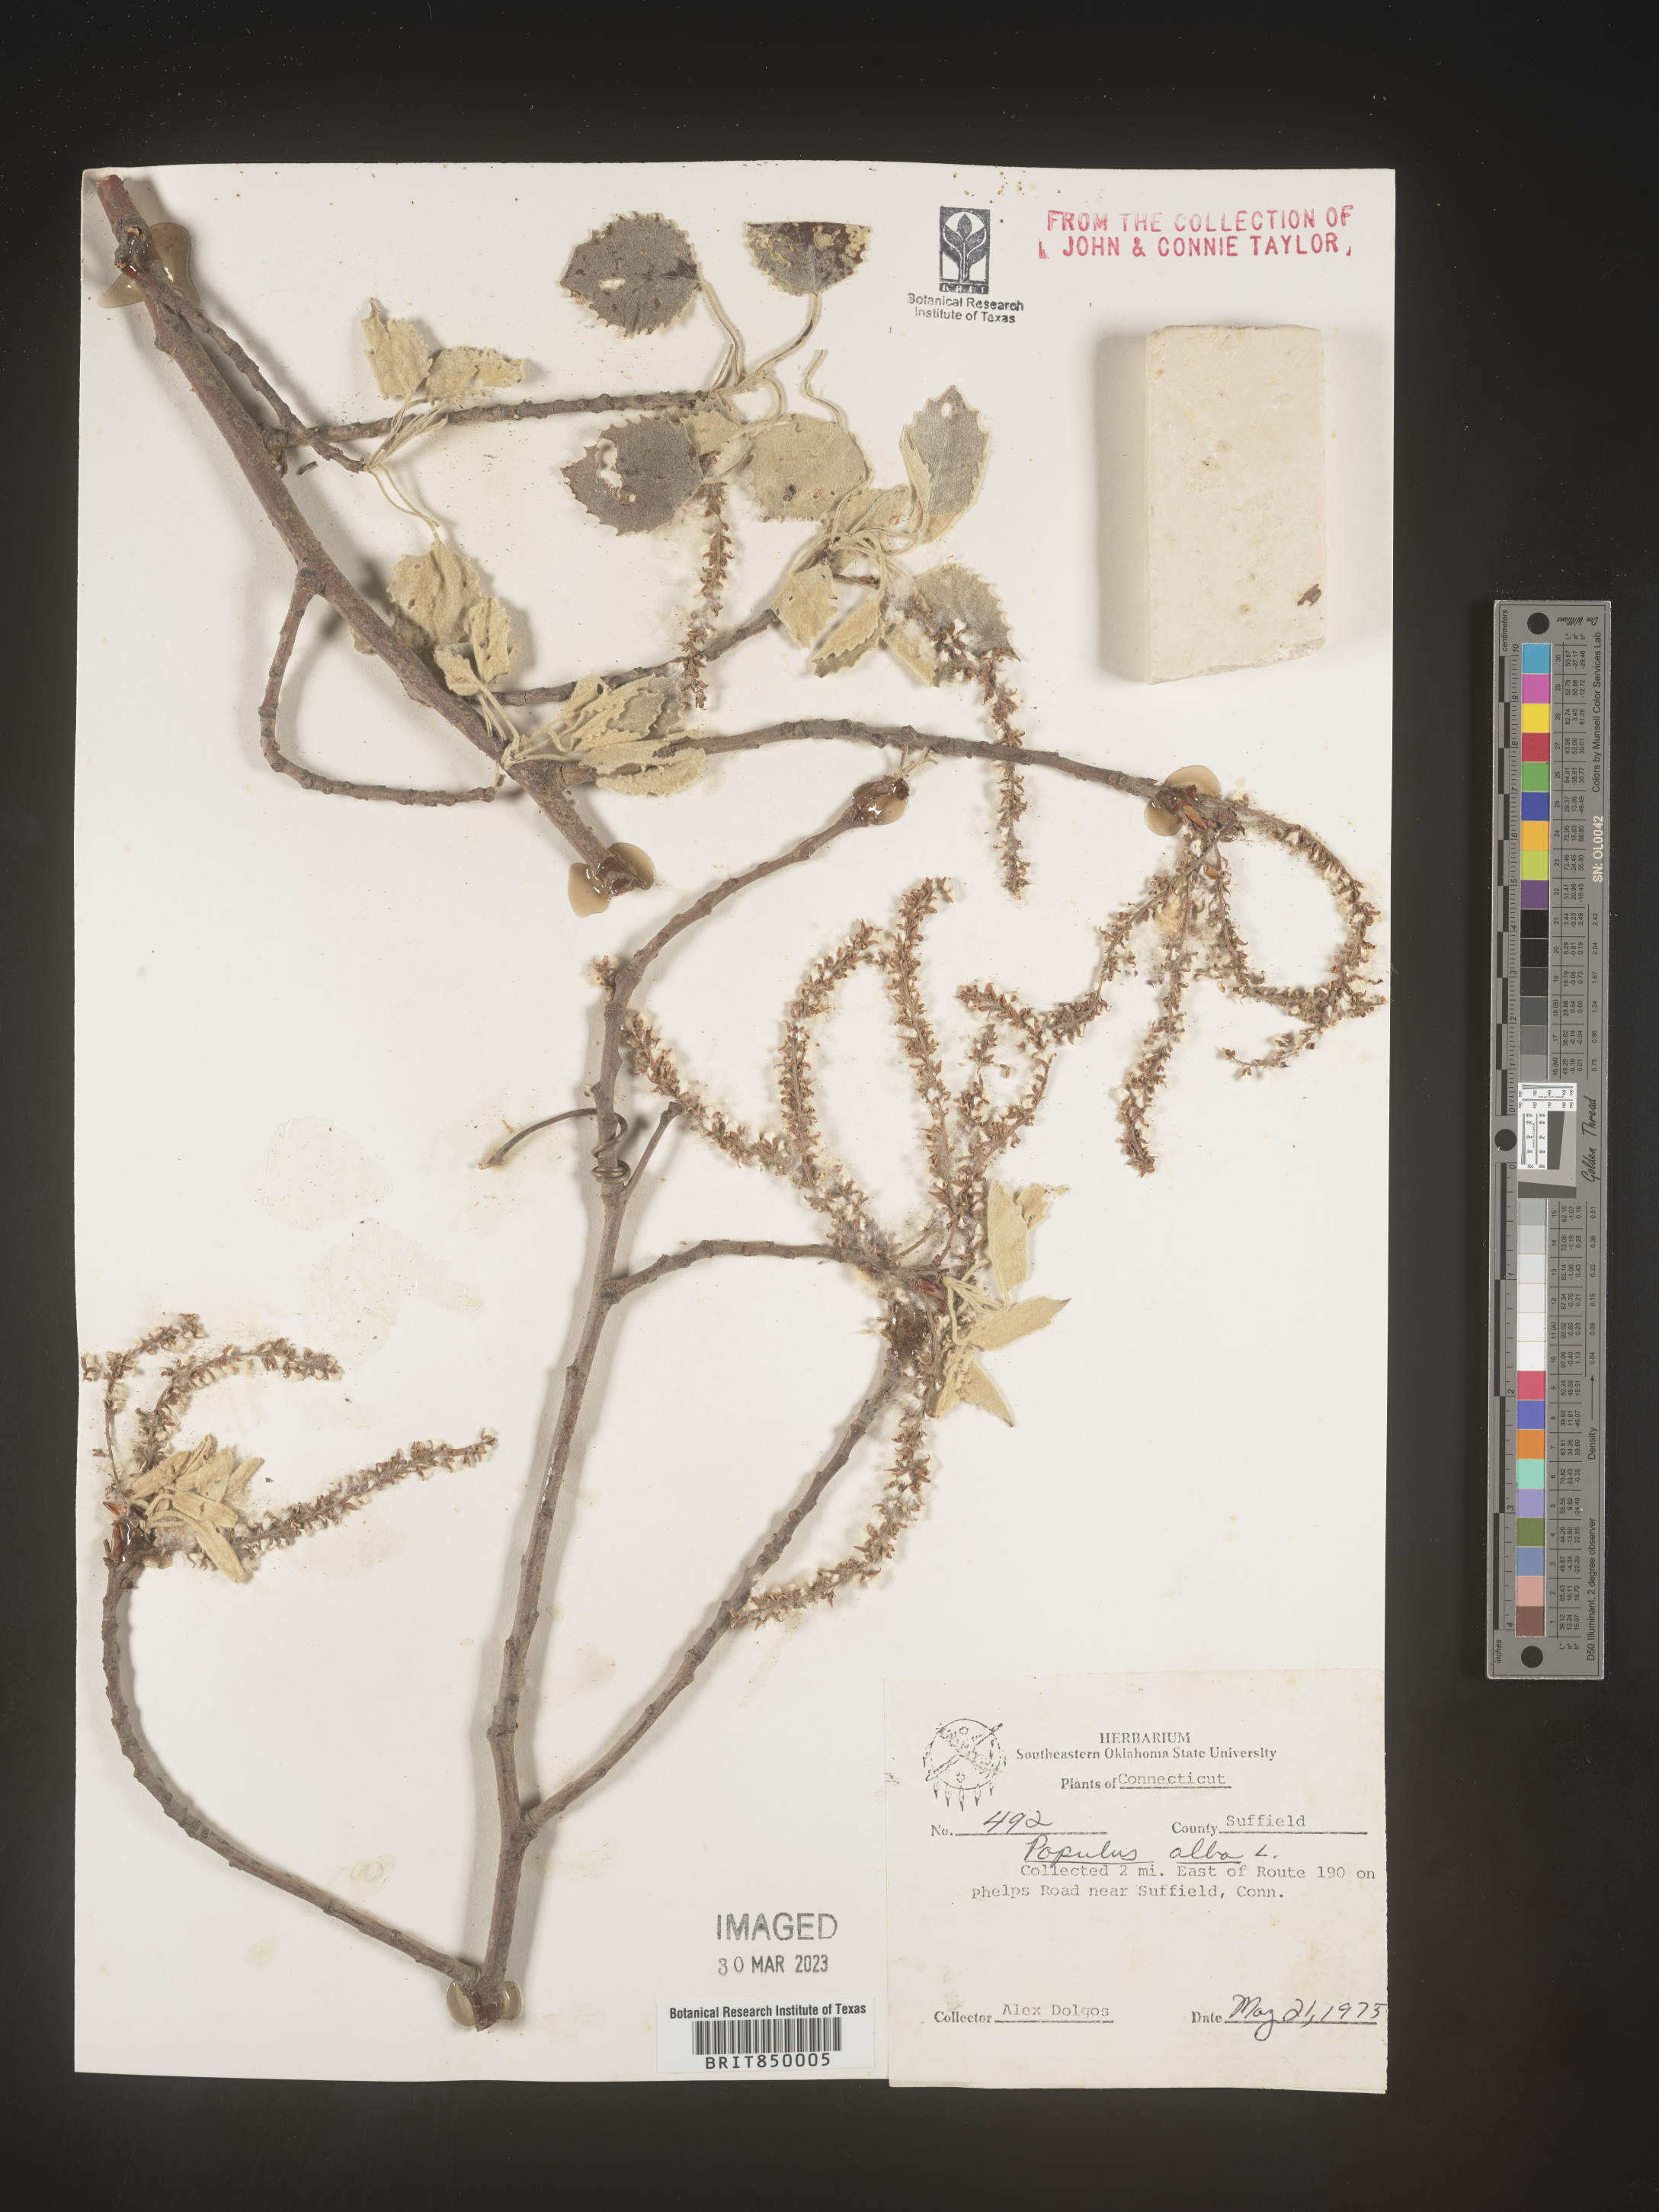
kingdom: Plantae
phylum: Tracheophyta
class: Magnoliopsida
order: Malpighiales
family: Salicaceae
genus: Populus
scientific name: Populus alba
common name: White poplar
